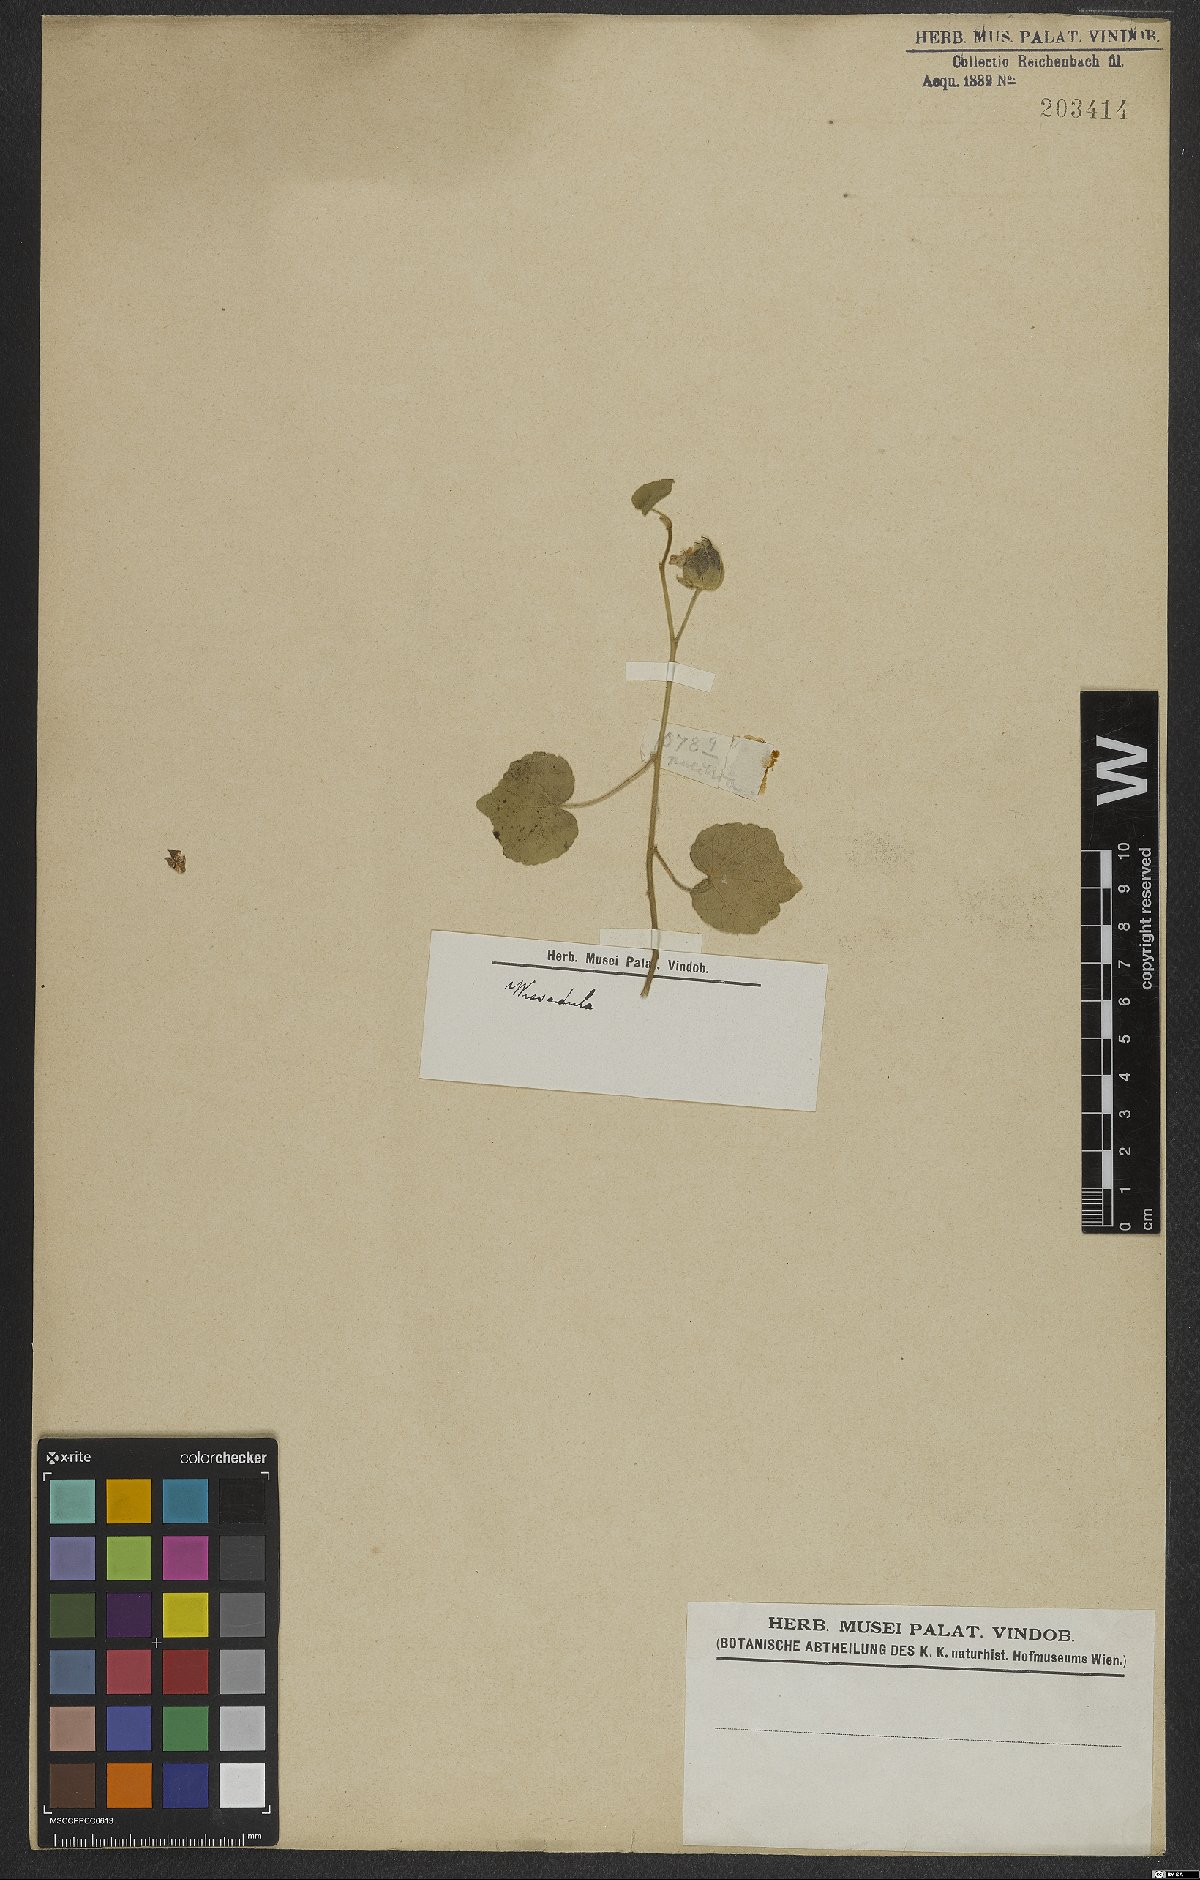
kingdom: Plantae
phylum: Tracheophyta
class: Magnoliopsida
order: Malvales
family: Malvaceae
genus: Wissadula
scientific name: Wissadula amplissima
